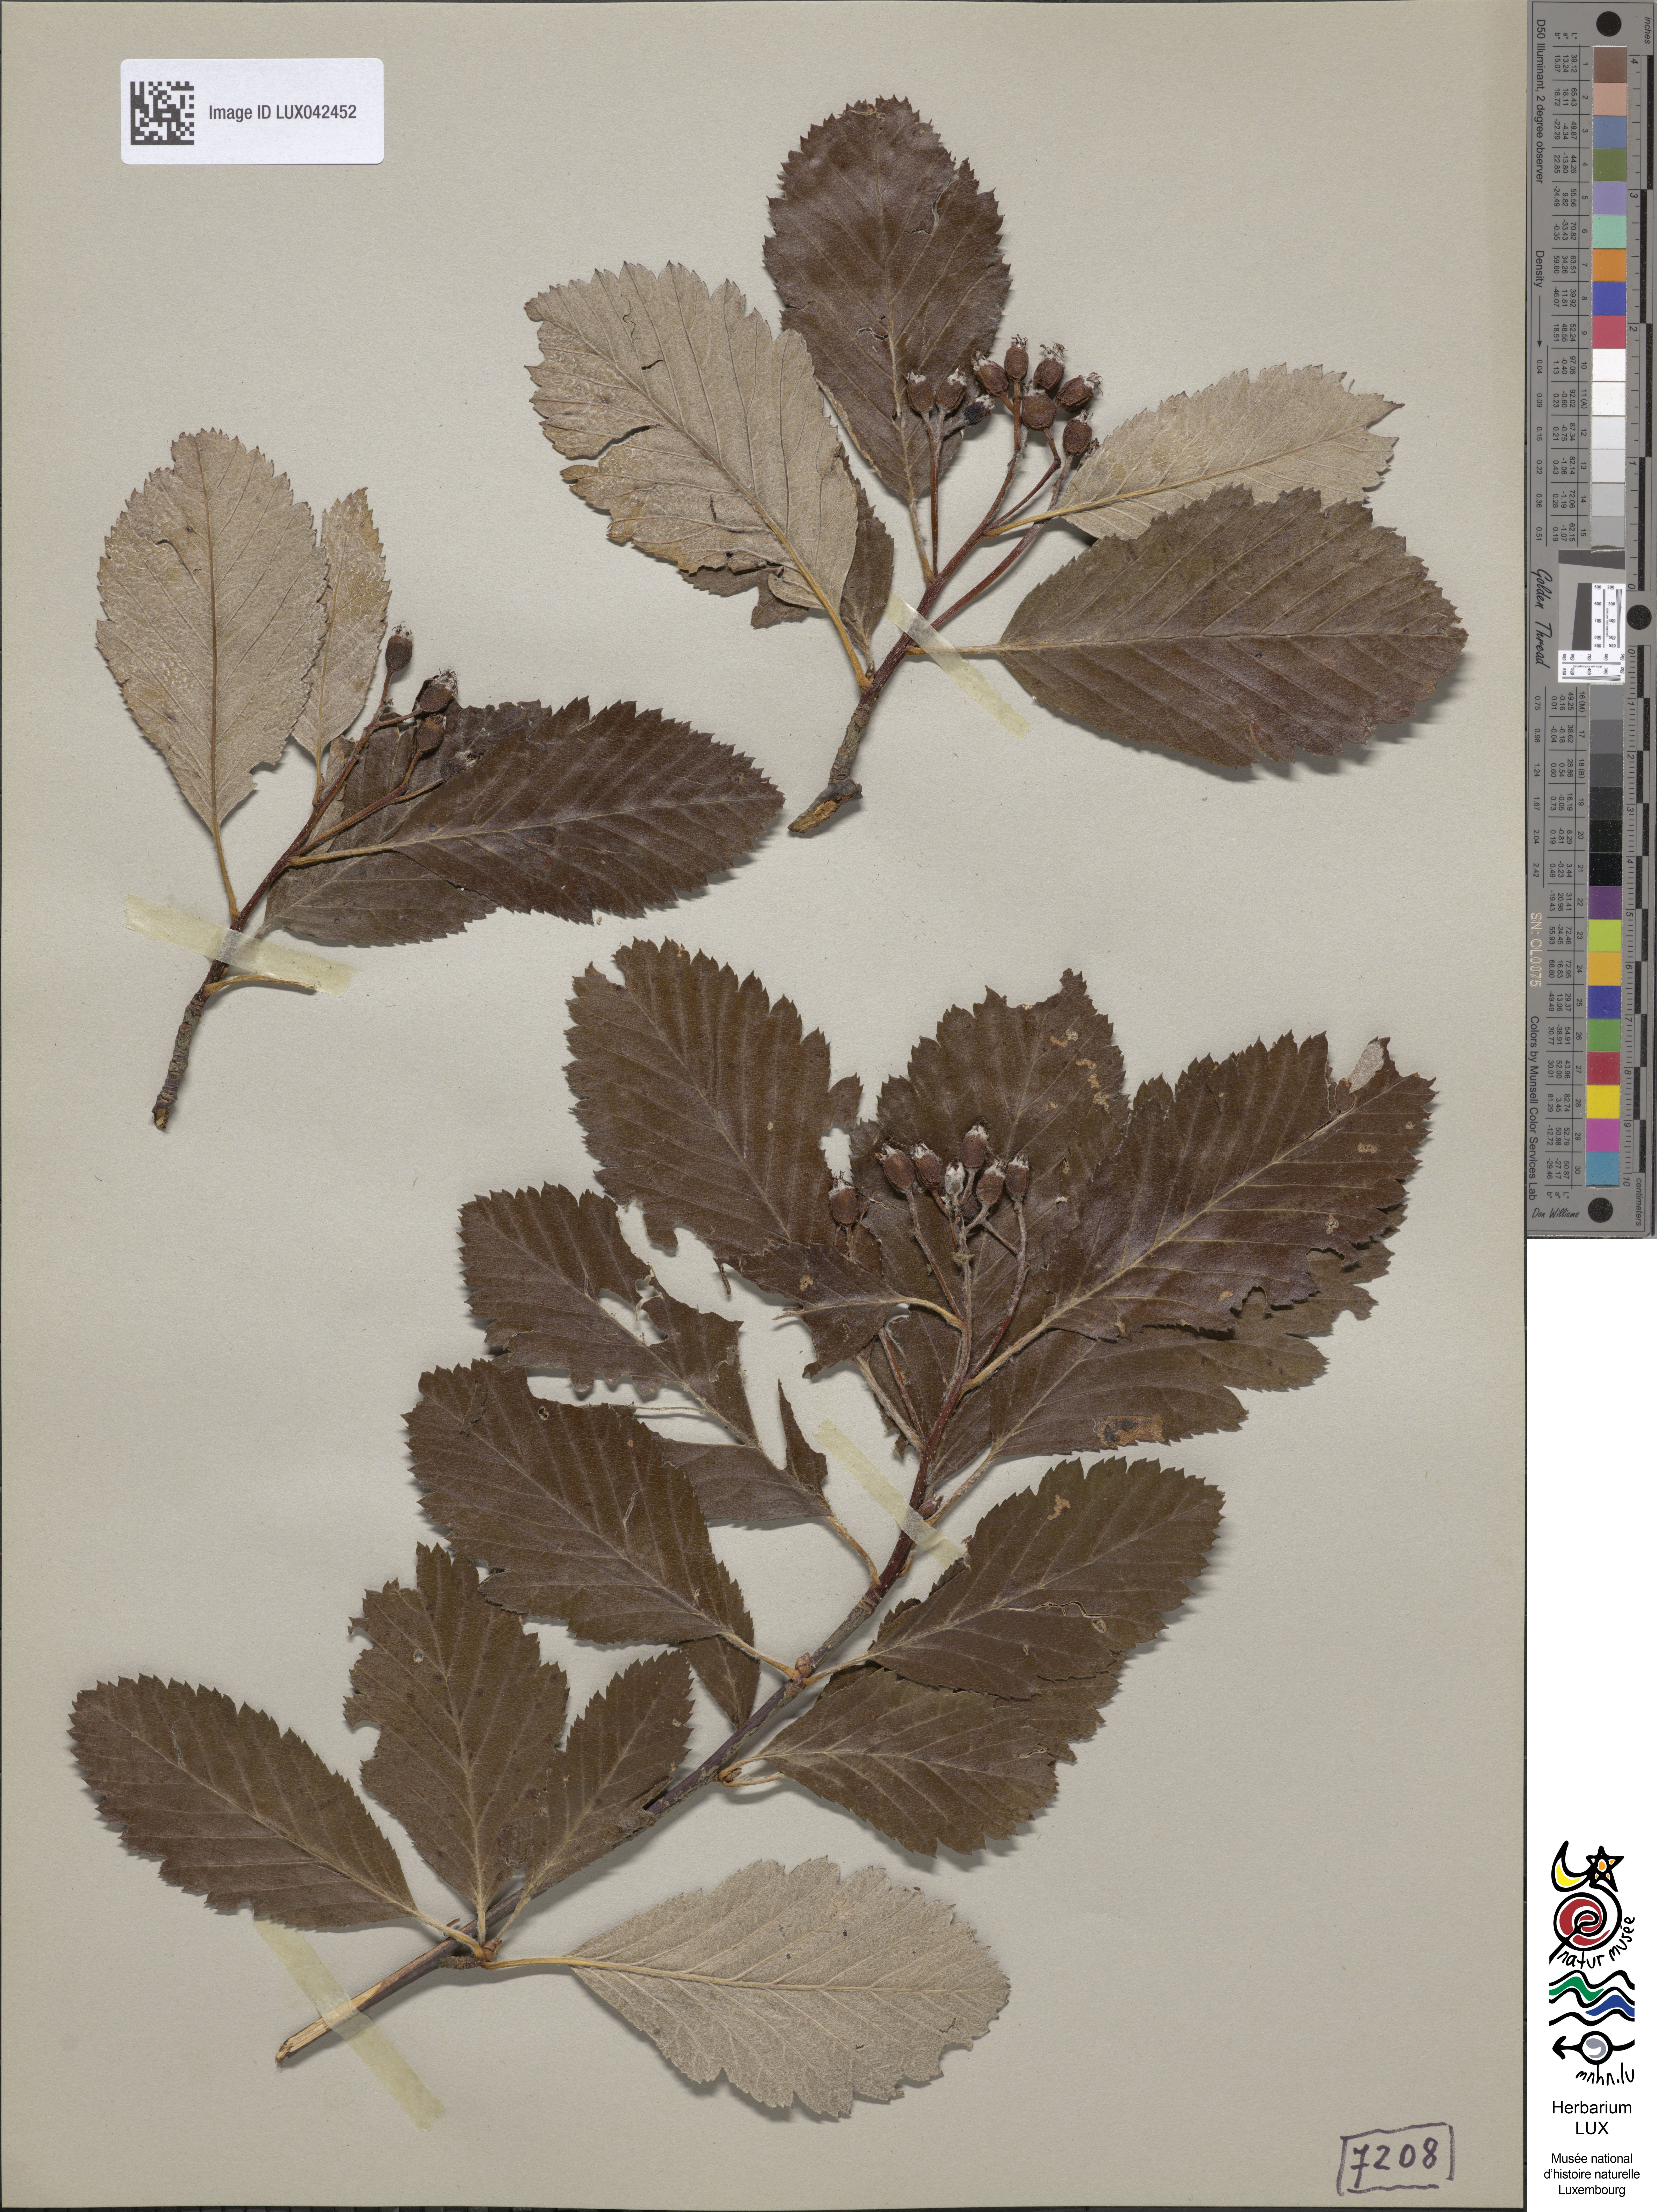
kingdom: Plantae
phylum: Tracheophyta
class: Magnoliopsida
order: Rosales
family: Rosaceae
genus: Scandosorbus
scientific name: Scandosorbus intermedia
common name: Swedish whitebeam
